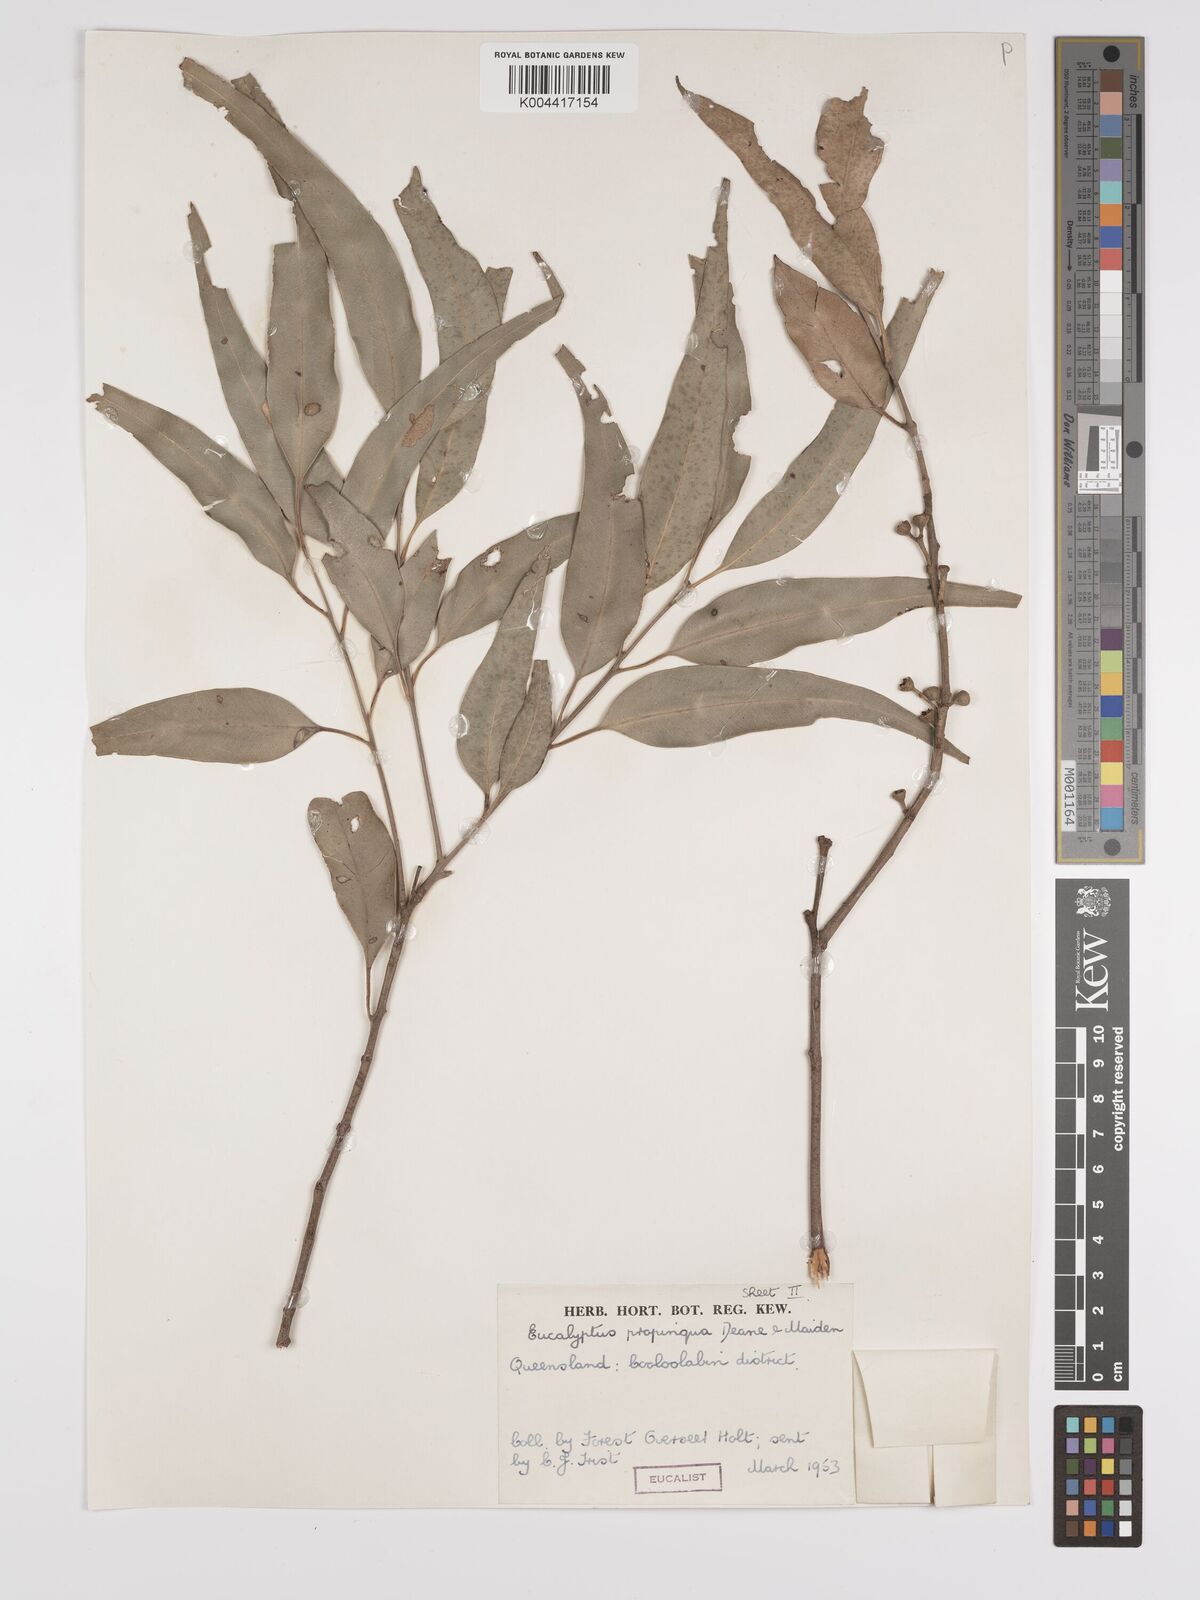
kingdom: Plantae
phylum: Tracheophyta
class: Magnoliopsida
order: Myrtales
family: Myrtaceae
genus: Eucalyptus
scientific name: Eucalyptus propinqua
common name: Grey-gum
